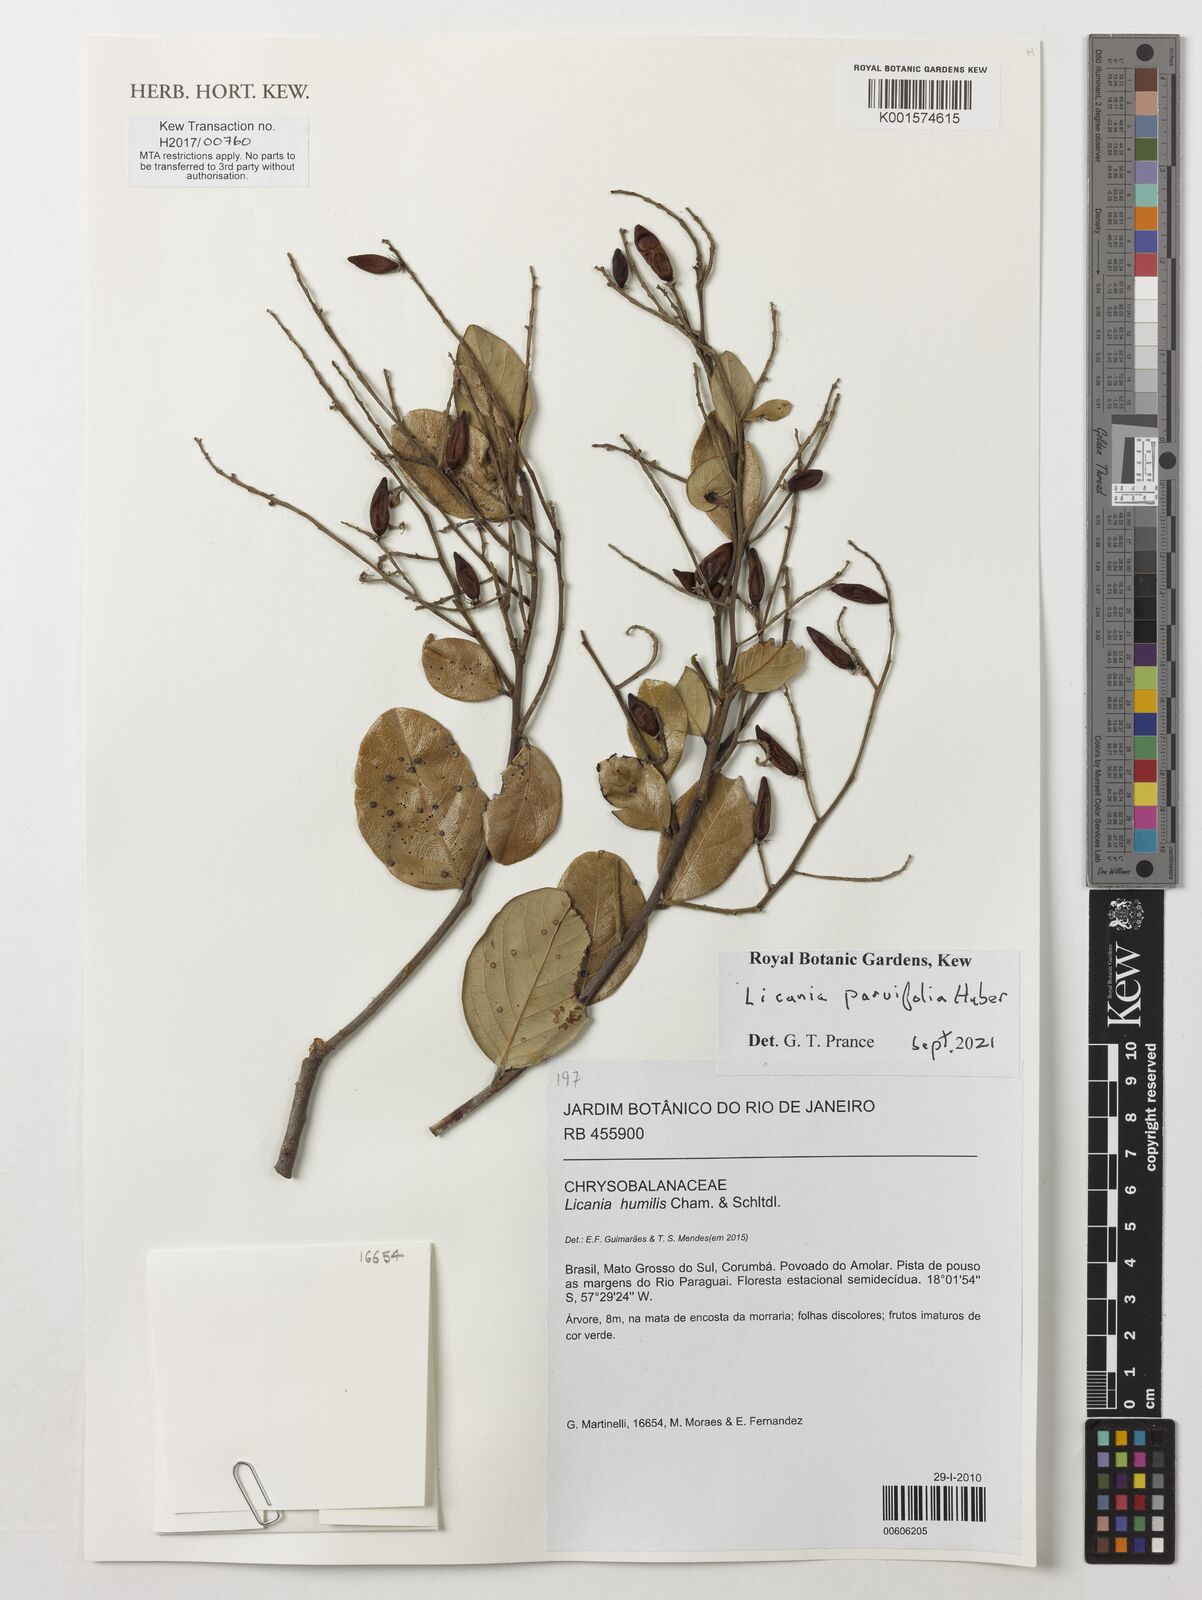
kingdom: Plantae
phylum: Tracheophyta
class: Magnoliopsida
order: Malpighiales
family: Chrysobalanaceae
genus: Licania
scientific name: Licania parvifolia
